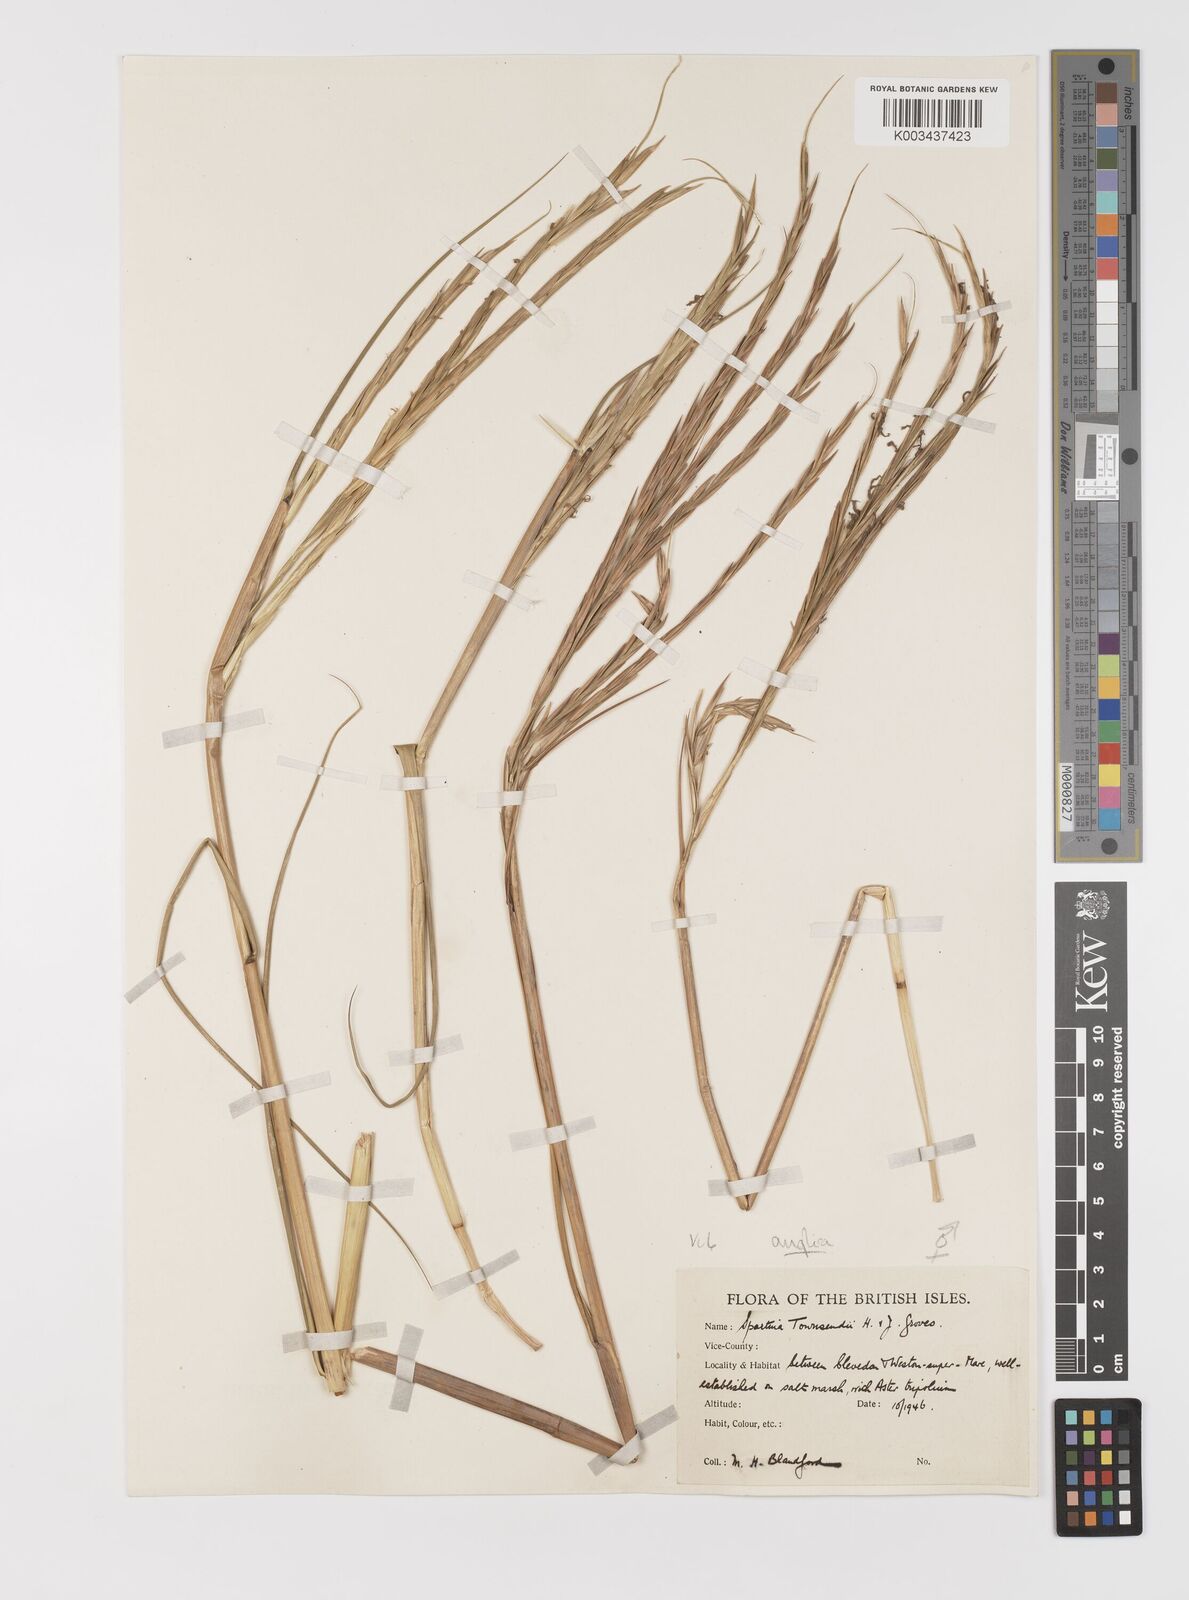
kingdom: Plantae
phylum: Tracheophyta
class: Liliopsida
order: Poales
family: Poaceae
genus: Sporobolus
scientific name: Sporobolus anglicus
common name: English cordgrass
